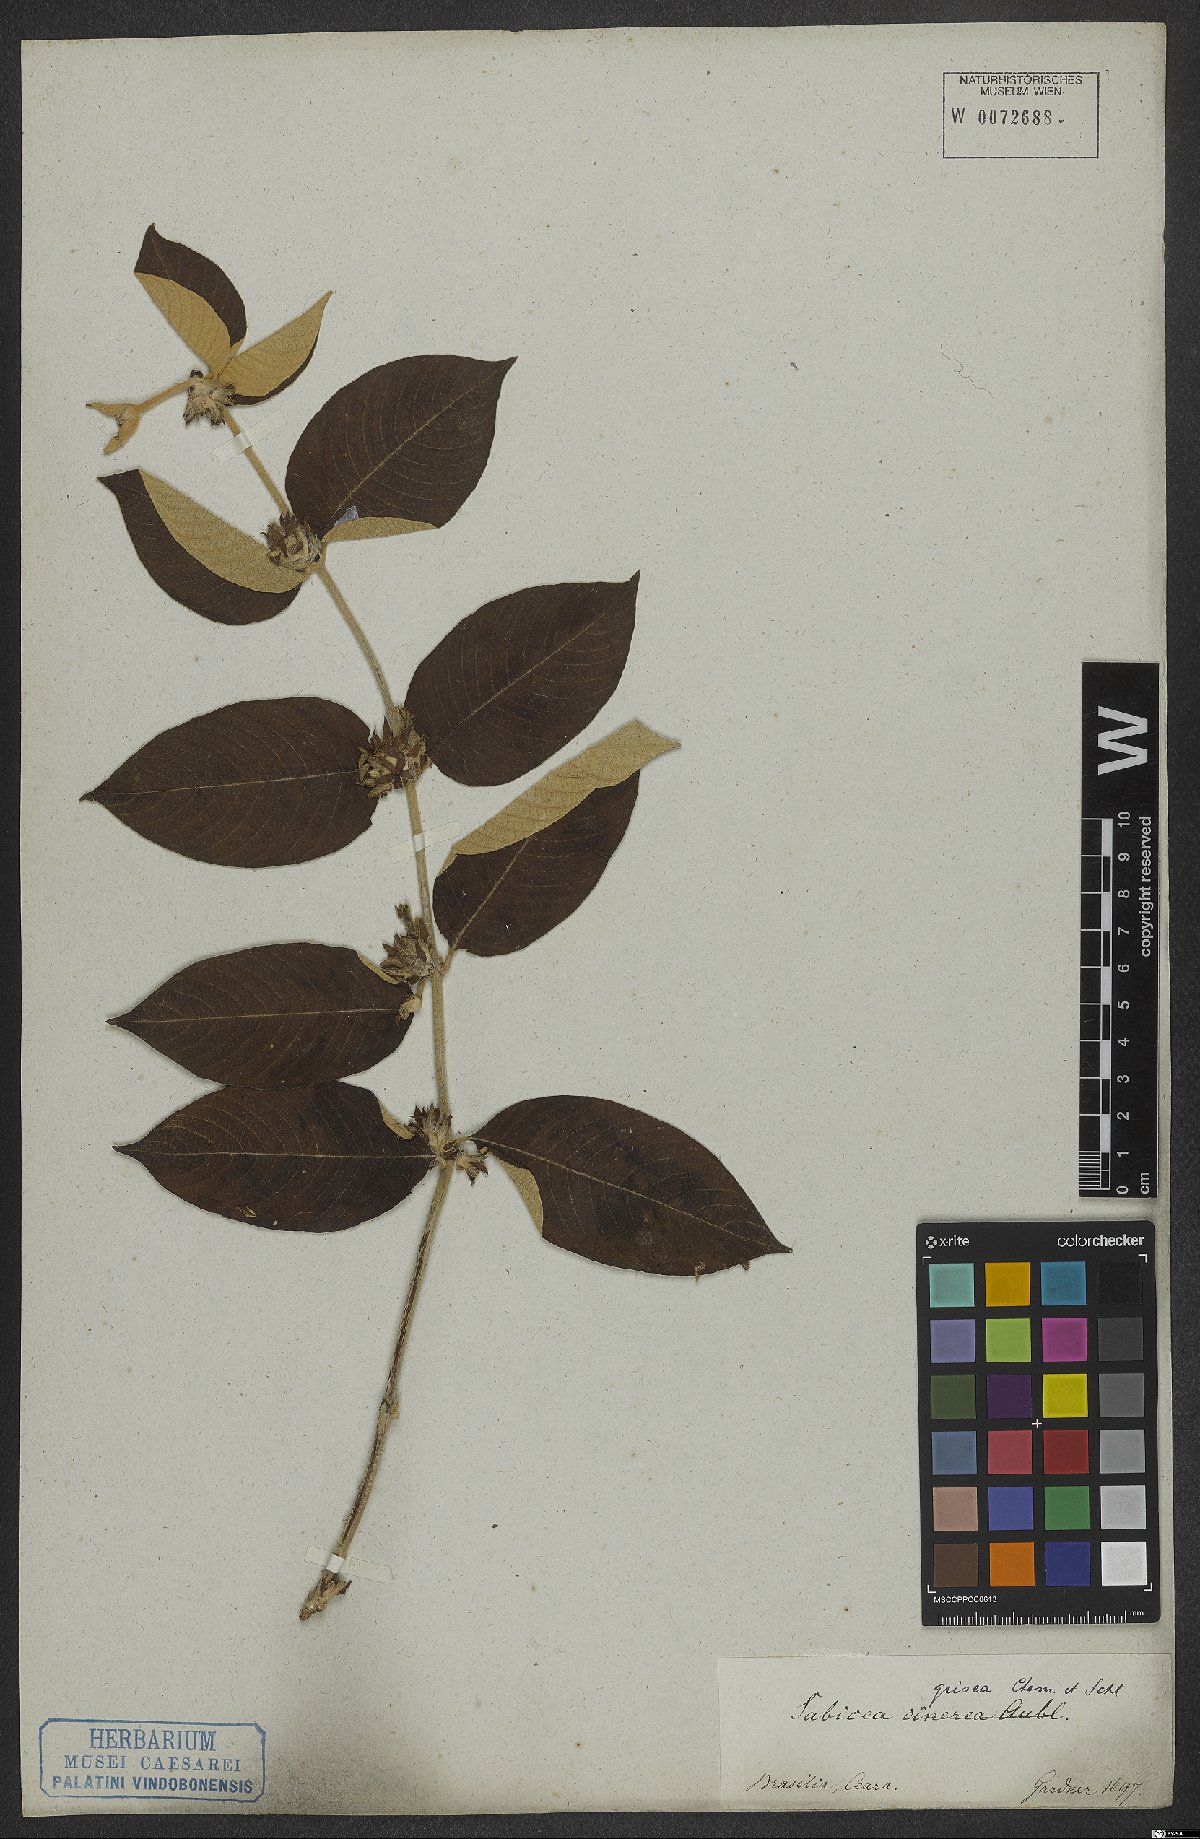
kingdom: Plantae
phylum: Tracheophyta
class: Magnoliopsida
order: Gentianales
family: Rubiaceae
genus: Sabicea
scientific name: Sabicea grisea
